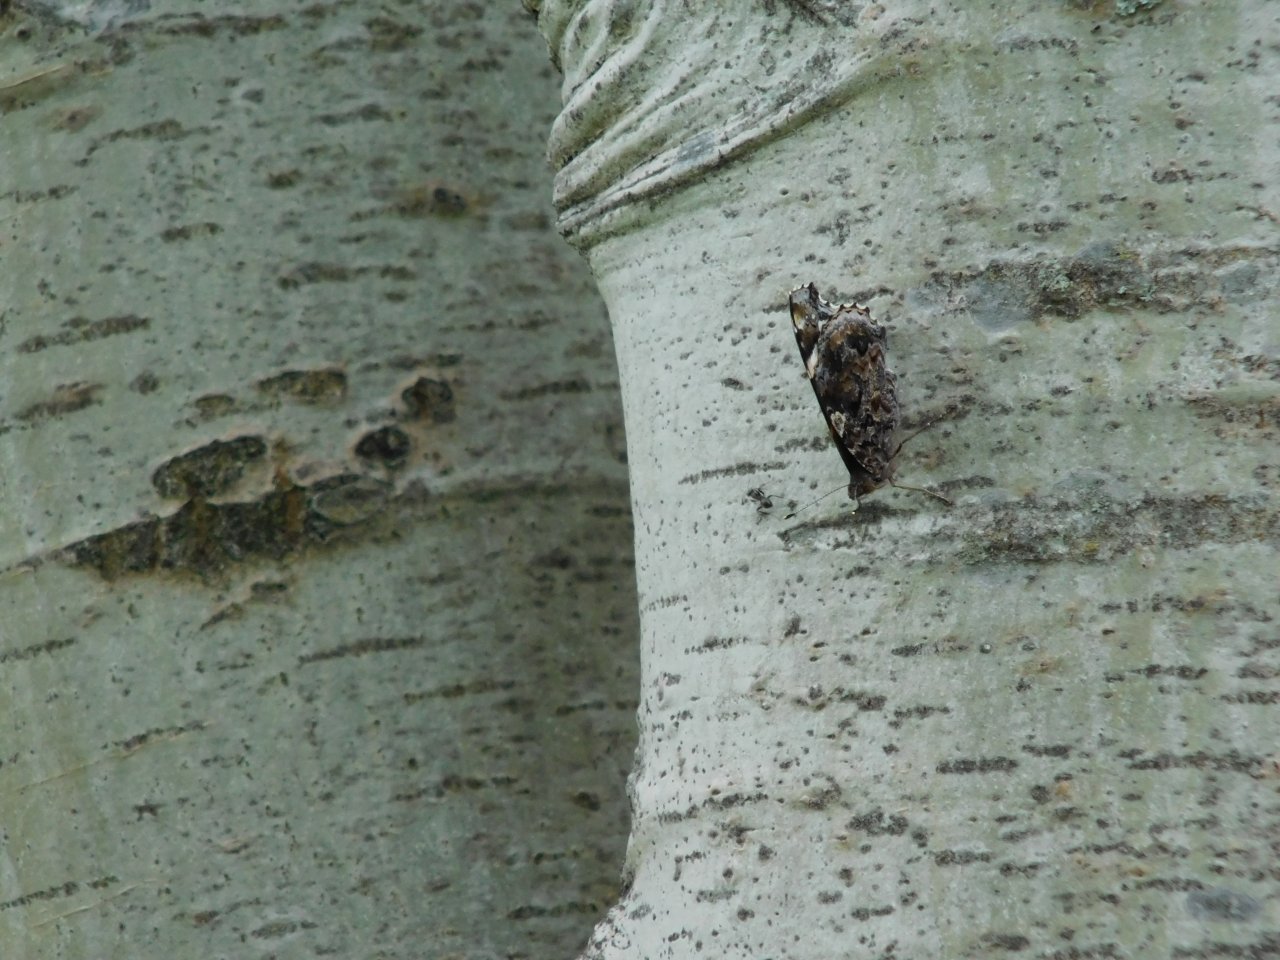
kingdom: Animalia
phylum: Arthropoda
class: Insecta
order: Lepidoptera
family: Nymphalidae
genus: Vanessa
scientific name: Vanessa atalanta
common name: Red Admiral
